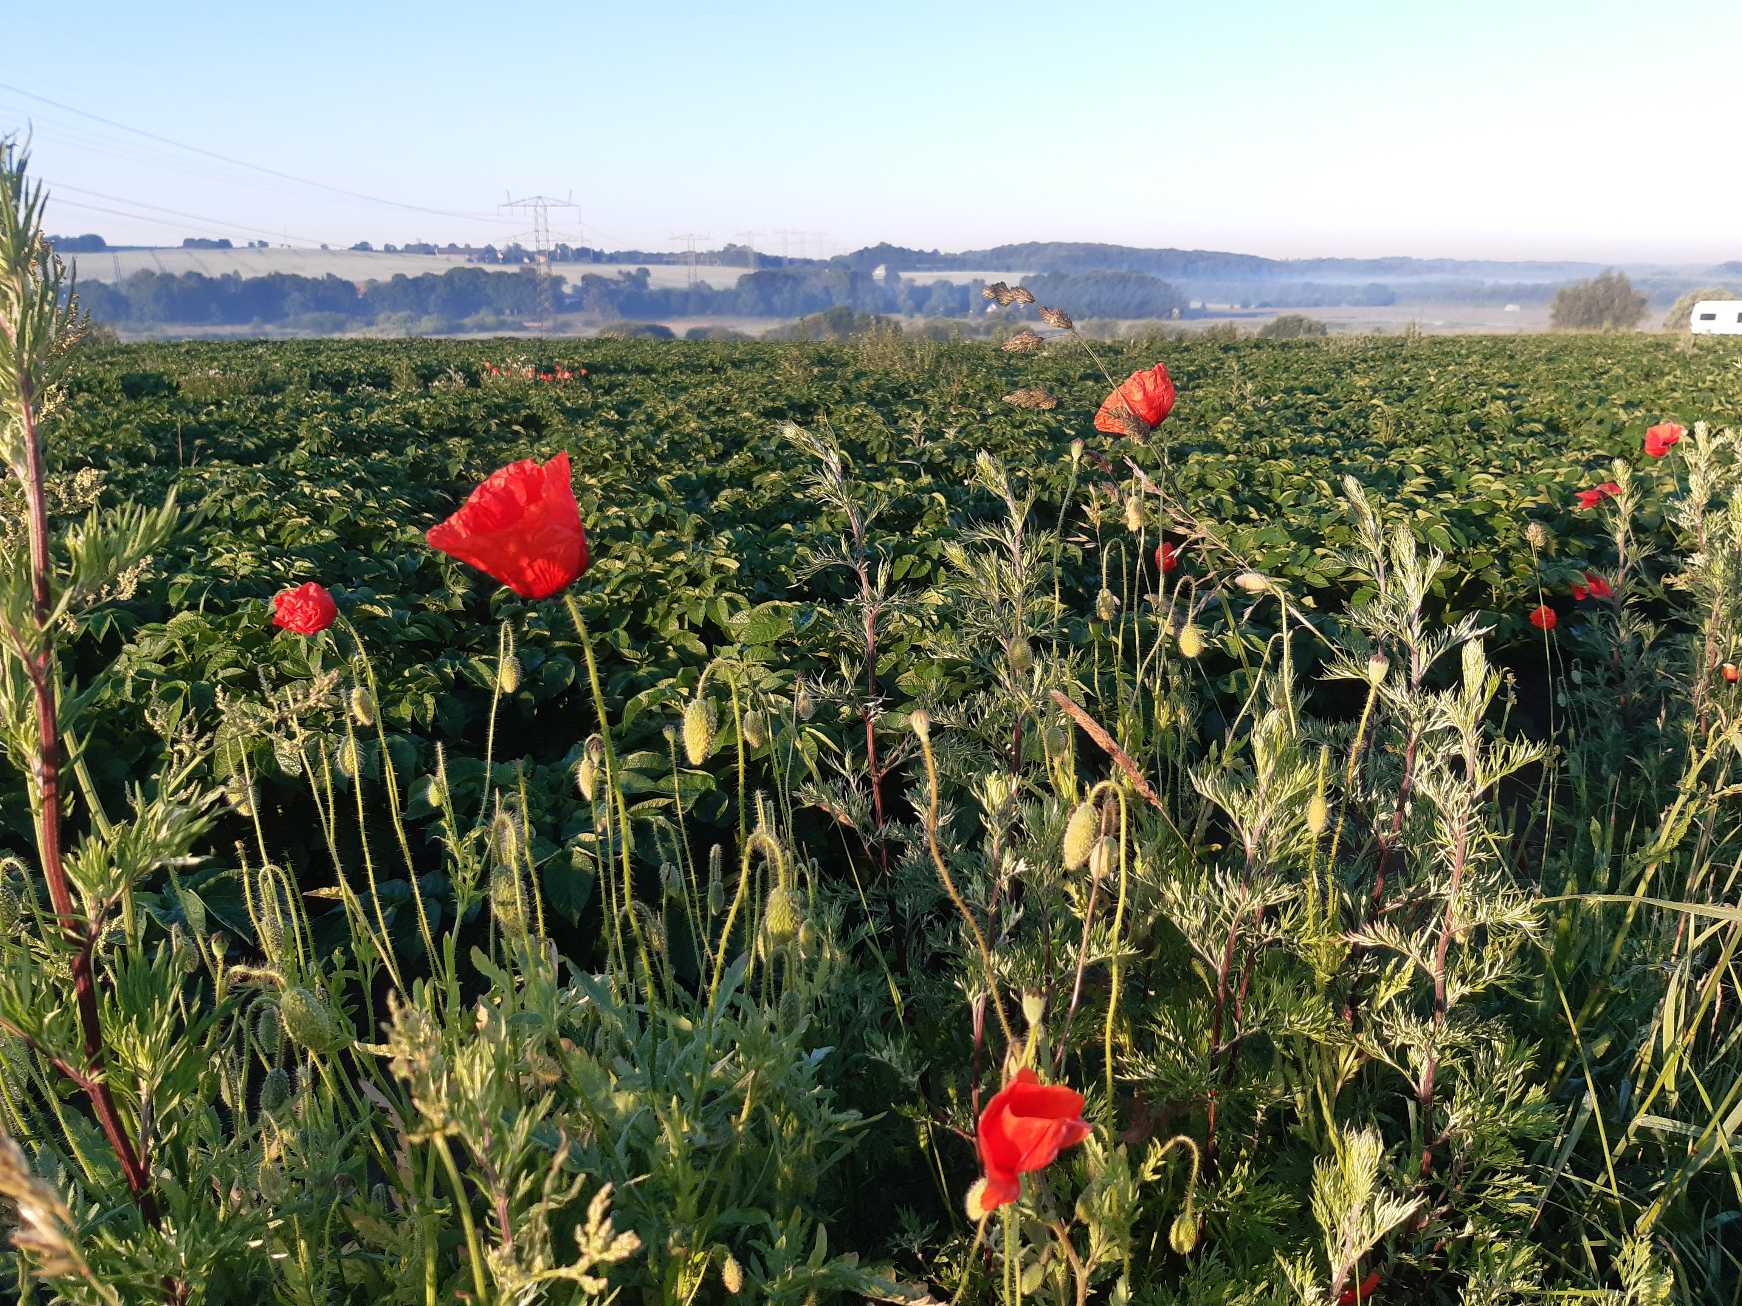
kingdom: Plantae
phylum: Tracheophyta
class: Magnoliopsida
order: Ranunculales
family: Papaveraceae
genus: Papaver
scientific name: Papaver rhoeas
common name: Korn-valmue
